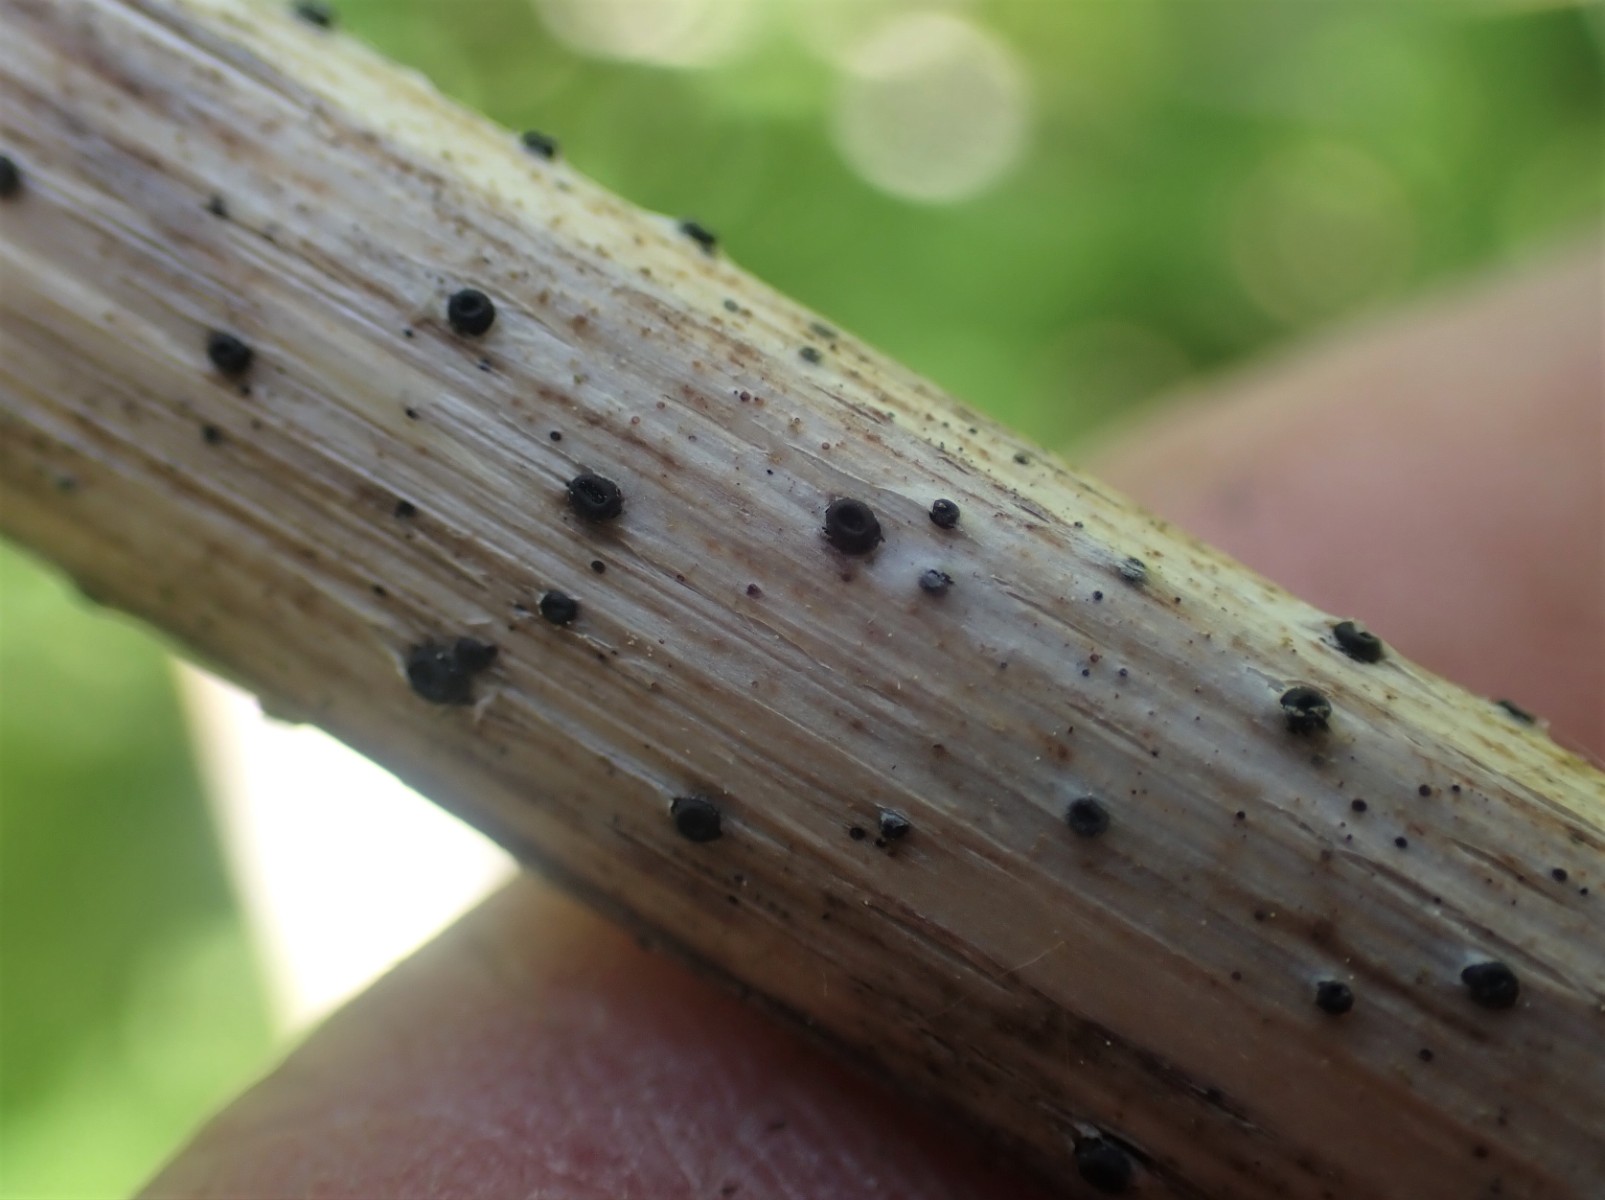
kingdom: Fungi
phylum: Ascomycota
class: Leotiomycetes
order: Helotiales
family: Heterosphaeriaceae
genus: Heterosphaeria
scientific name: Heterosphaeria
